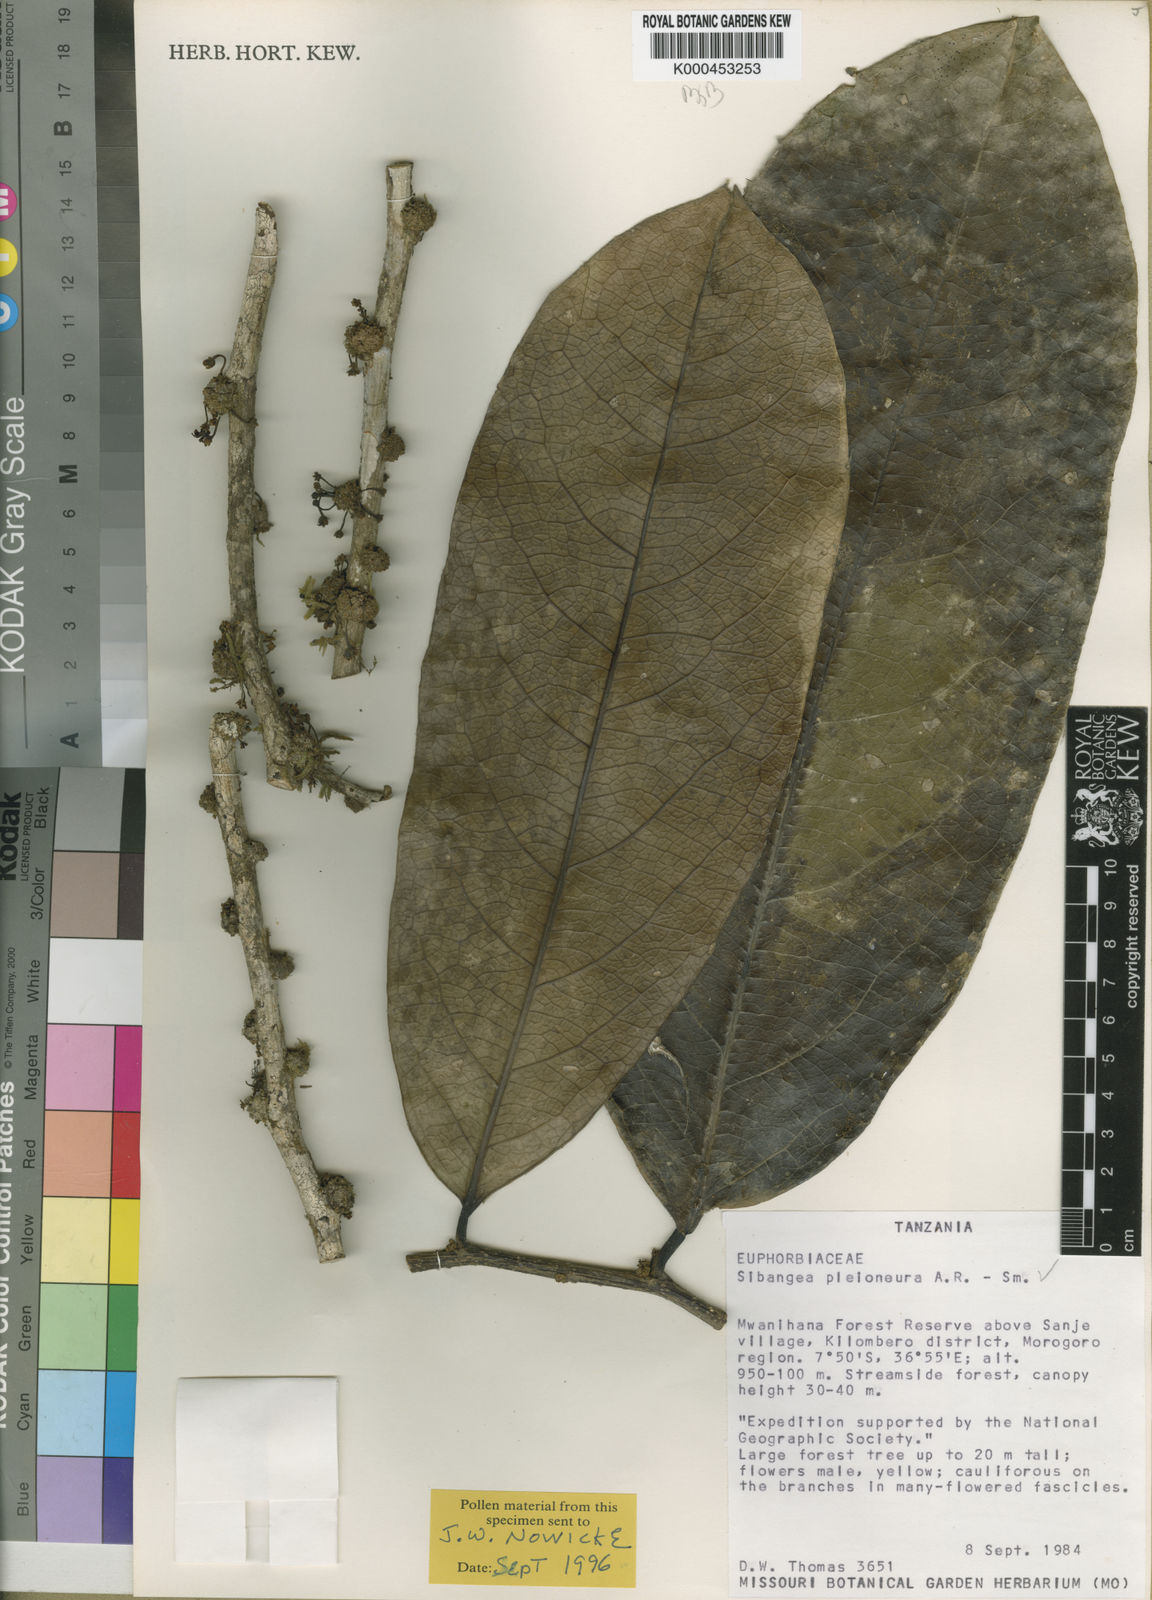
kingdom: Plantae
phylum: Tracheophyta
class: Magnoliopsida
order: Malpighiales
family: Putranjivaceae
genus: Drypetes
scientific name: Drypetes
